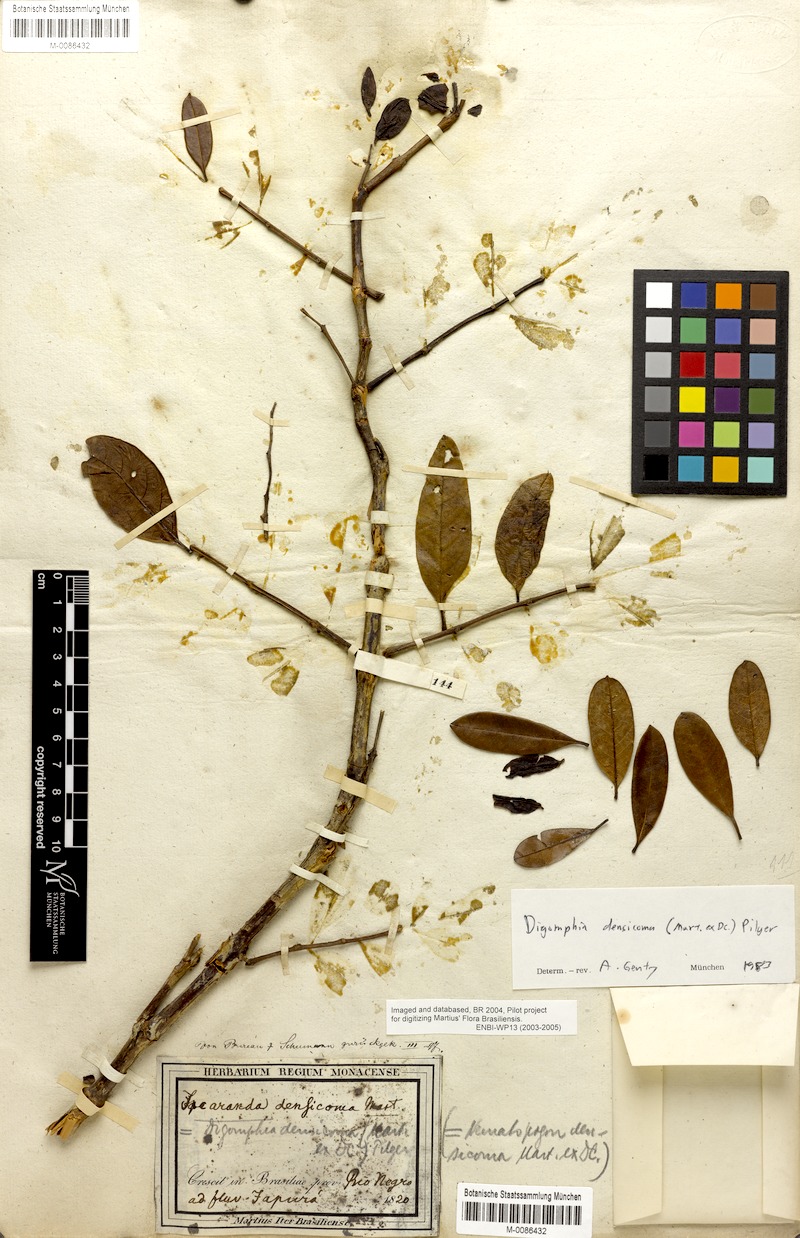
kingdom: Plantae
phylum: Tracheophyta
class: Magnoliopsida
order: Lamiales
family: Bignoniaceae
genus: Digomphia
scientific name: Digomphia densicoma
